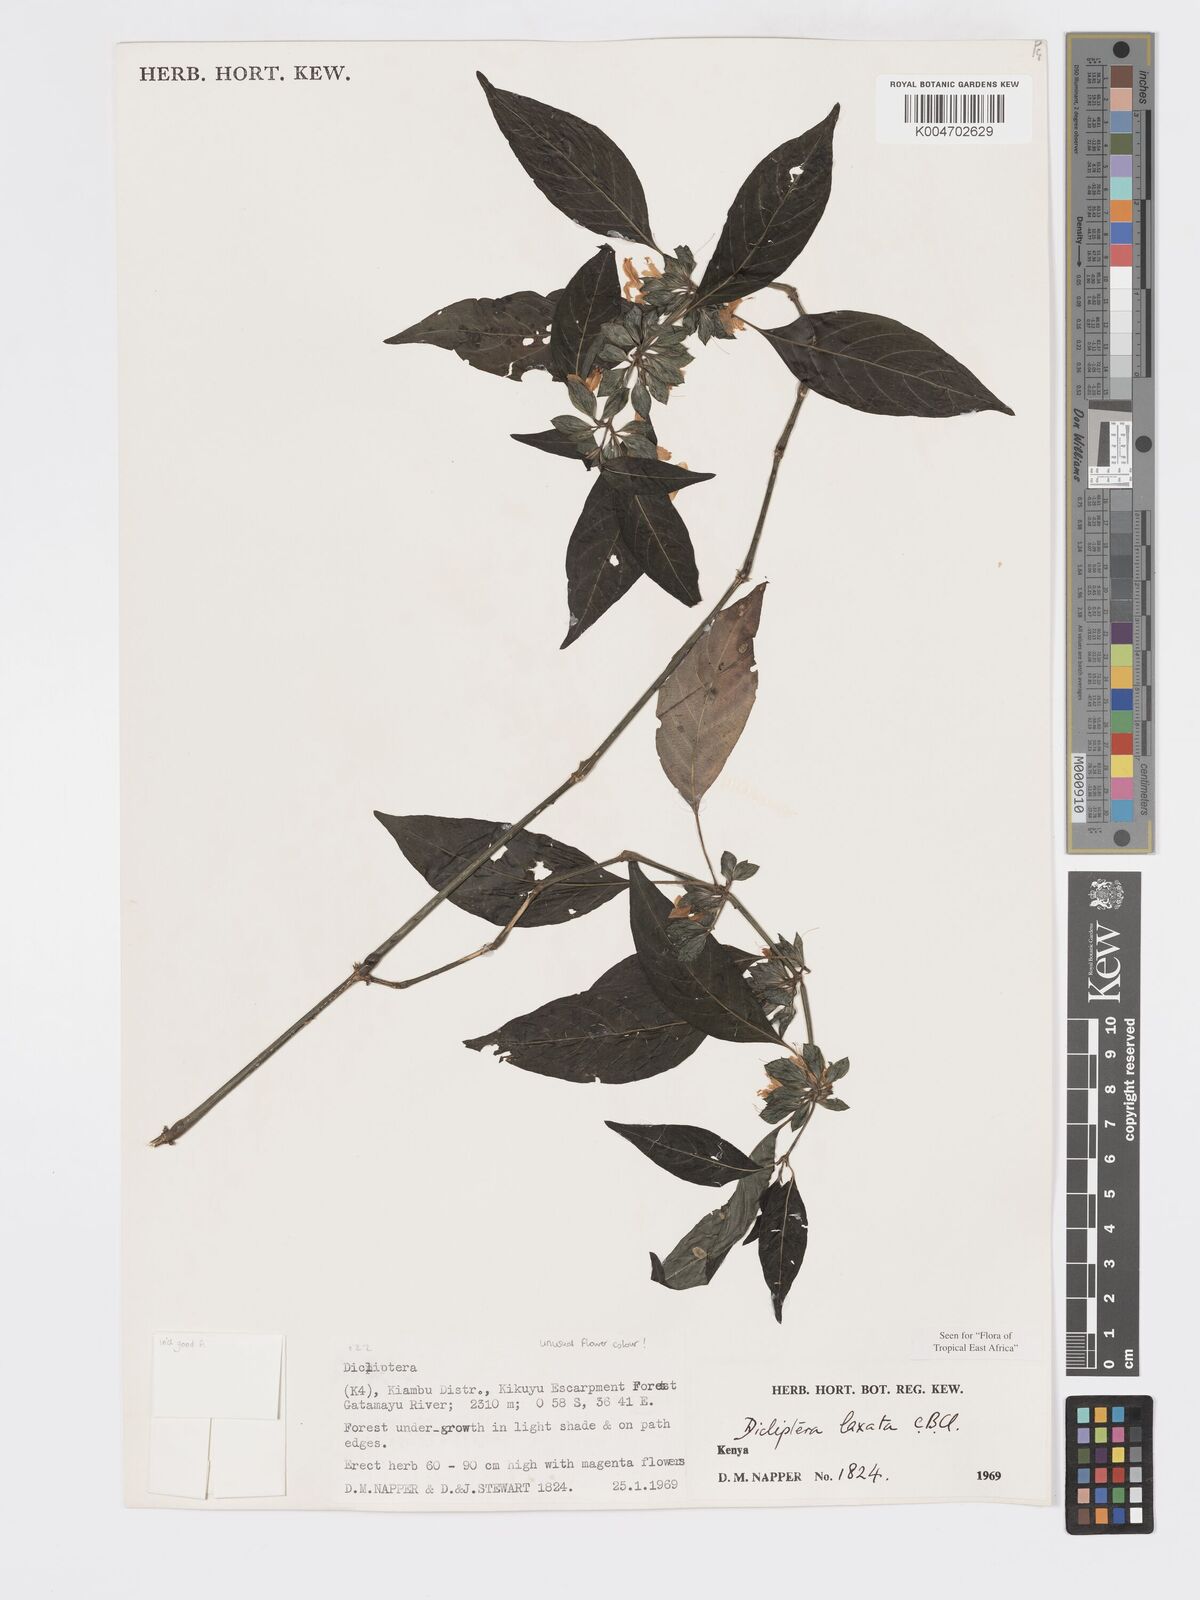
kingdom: Plantae
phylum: Tracheophyta
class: Magnoliopsida
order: Lamiales
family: Acanthaceae
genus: Dicliptera
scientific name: Dicliptera laxata
